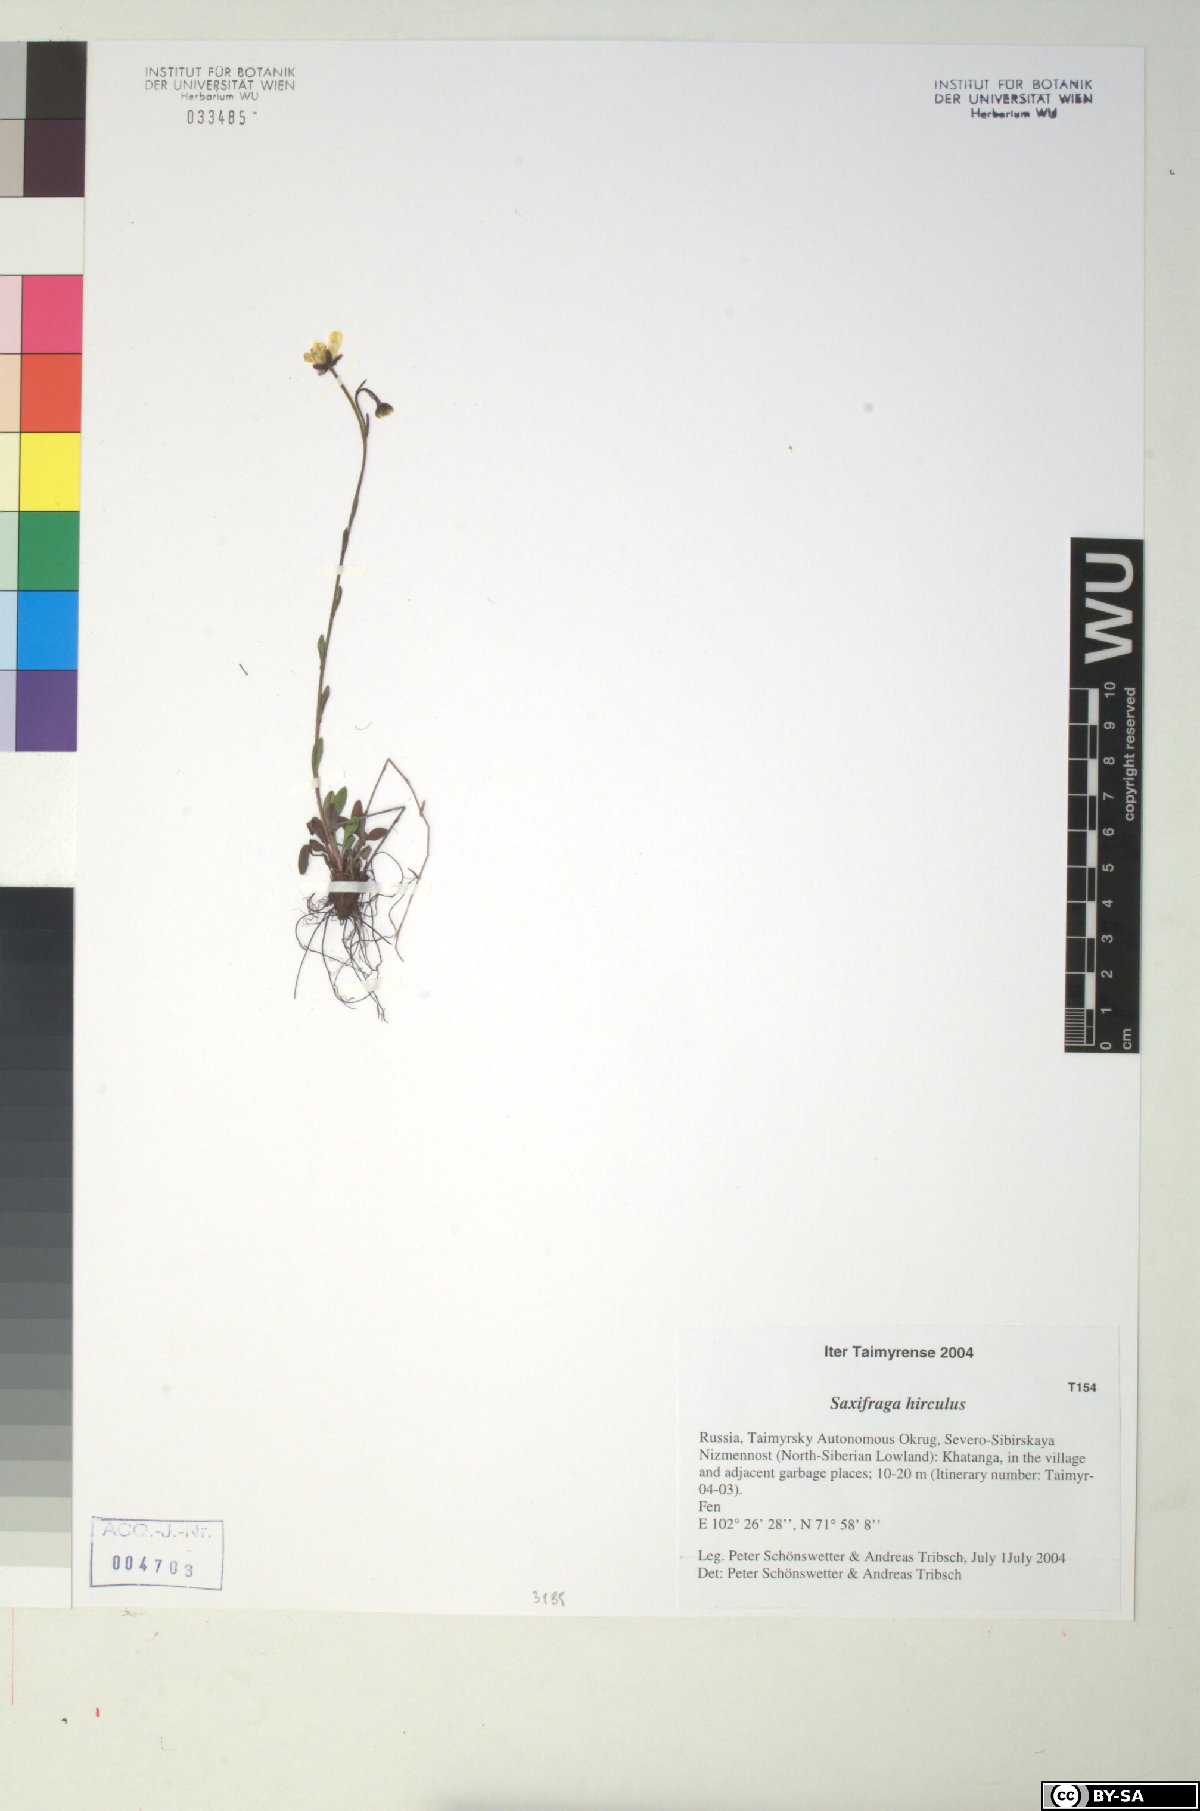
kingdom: Plantae
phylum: Tracheophyta
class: Magnoliopsida
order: Saxifragales
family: Saxifragaceae
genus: Saxifraga
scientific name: Saxifraga hirculus
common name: Yellow marsh saxifrage
